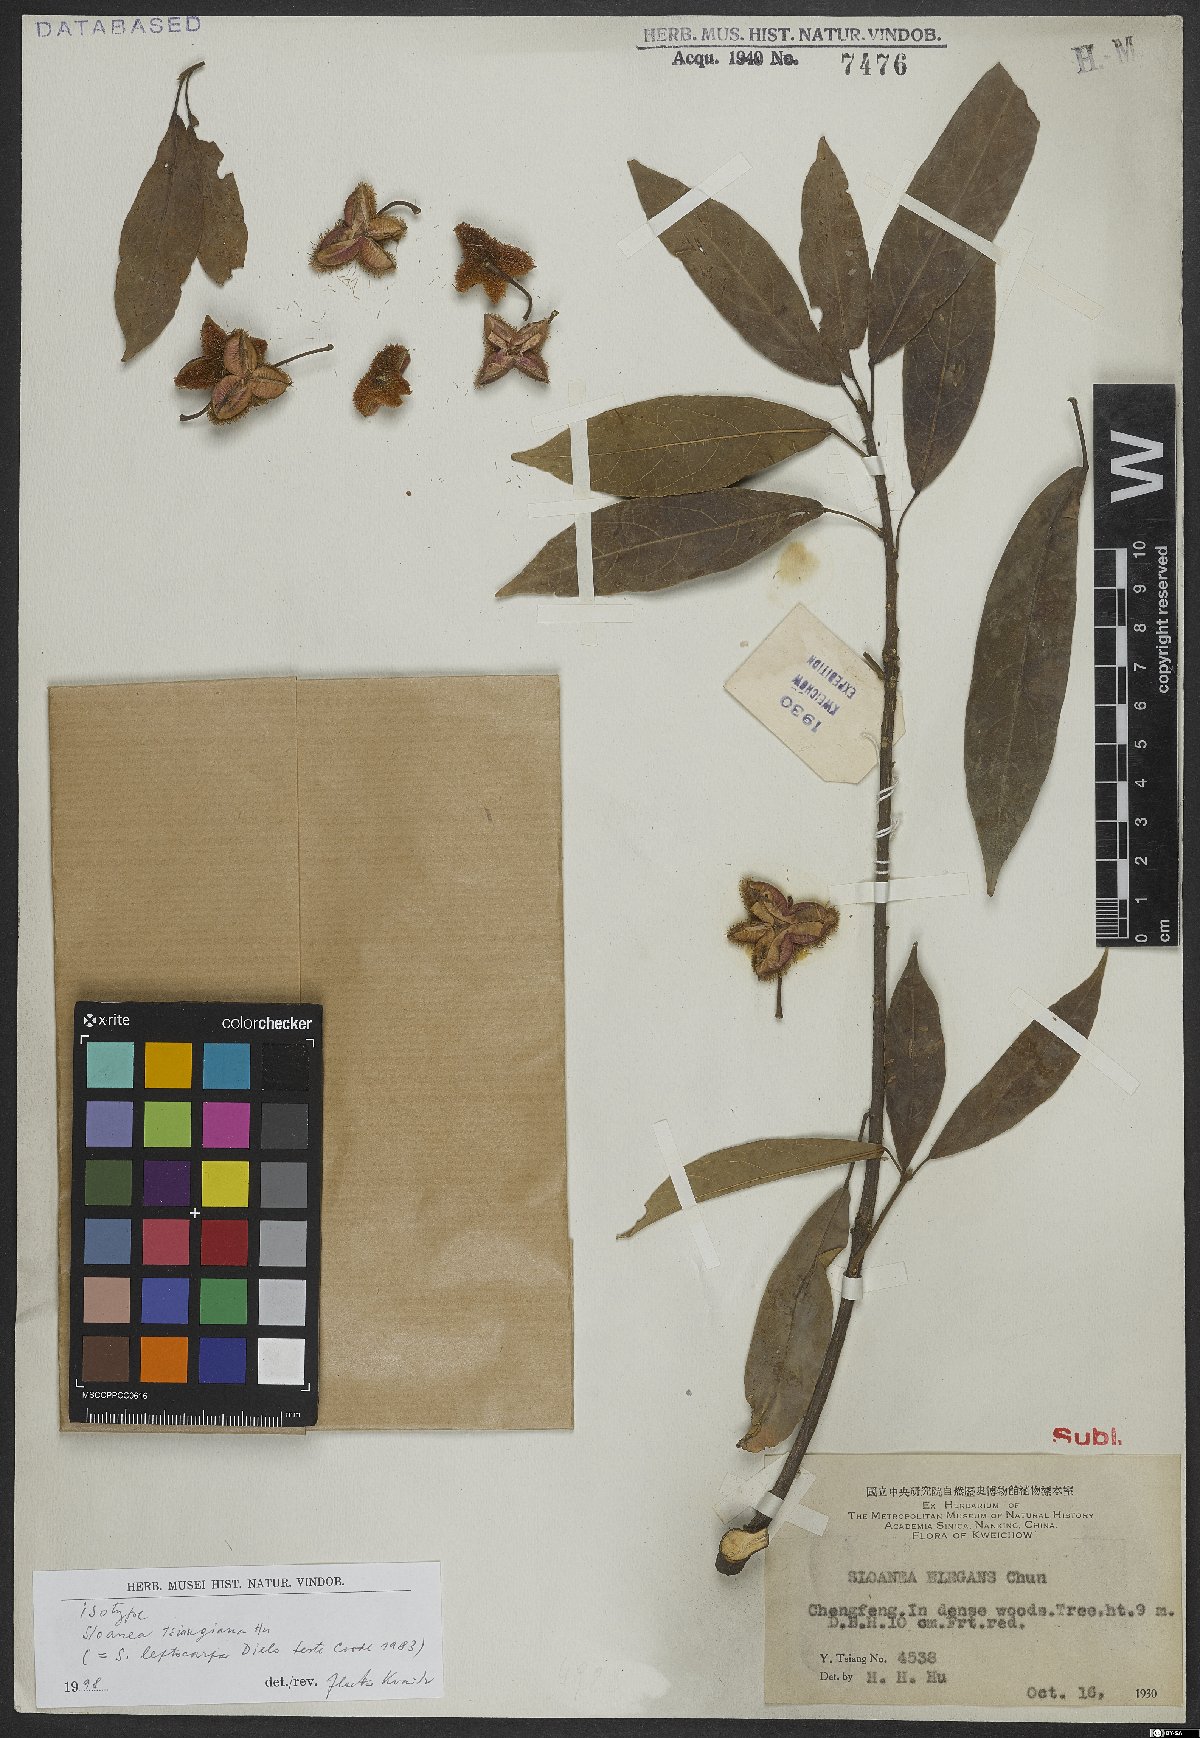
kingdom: Plantae
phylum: Tracheophyta
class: Magnoliopsida
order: Oxalidales
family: Elaeocarpaceae
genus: Sloanea
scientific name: Sloanea leptocarpa
